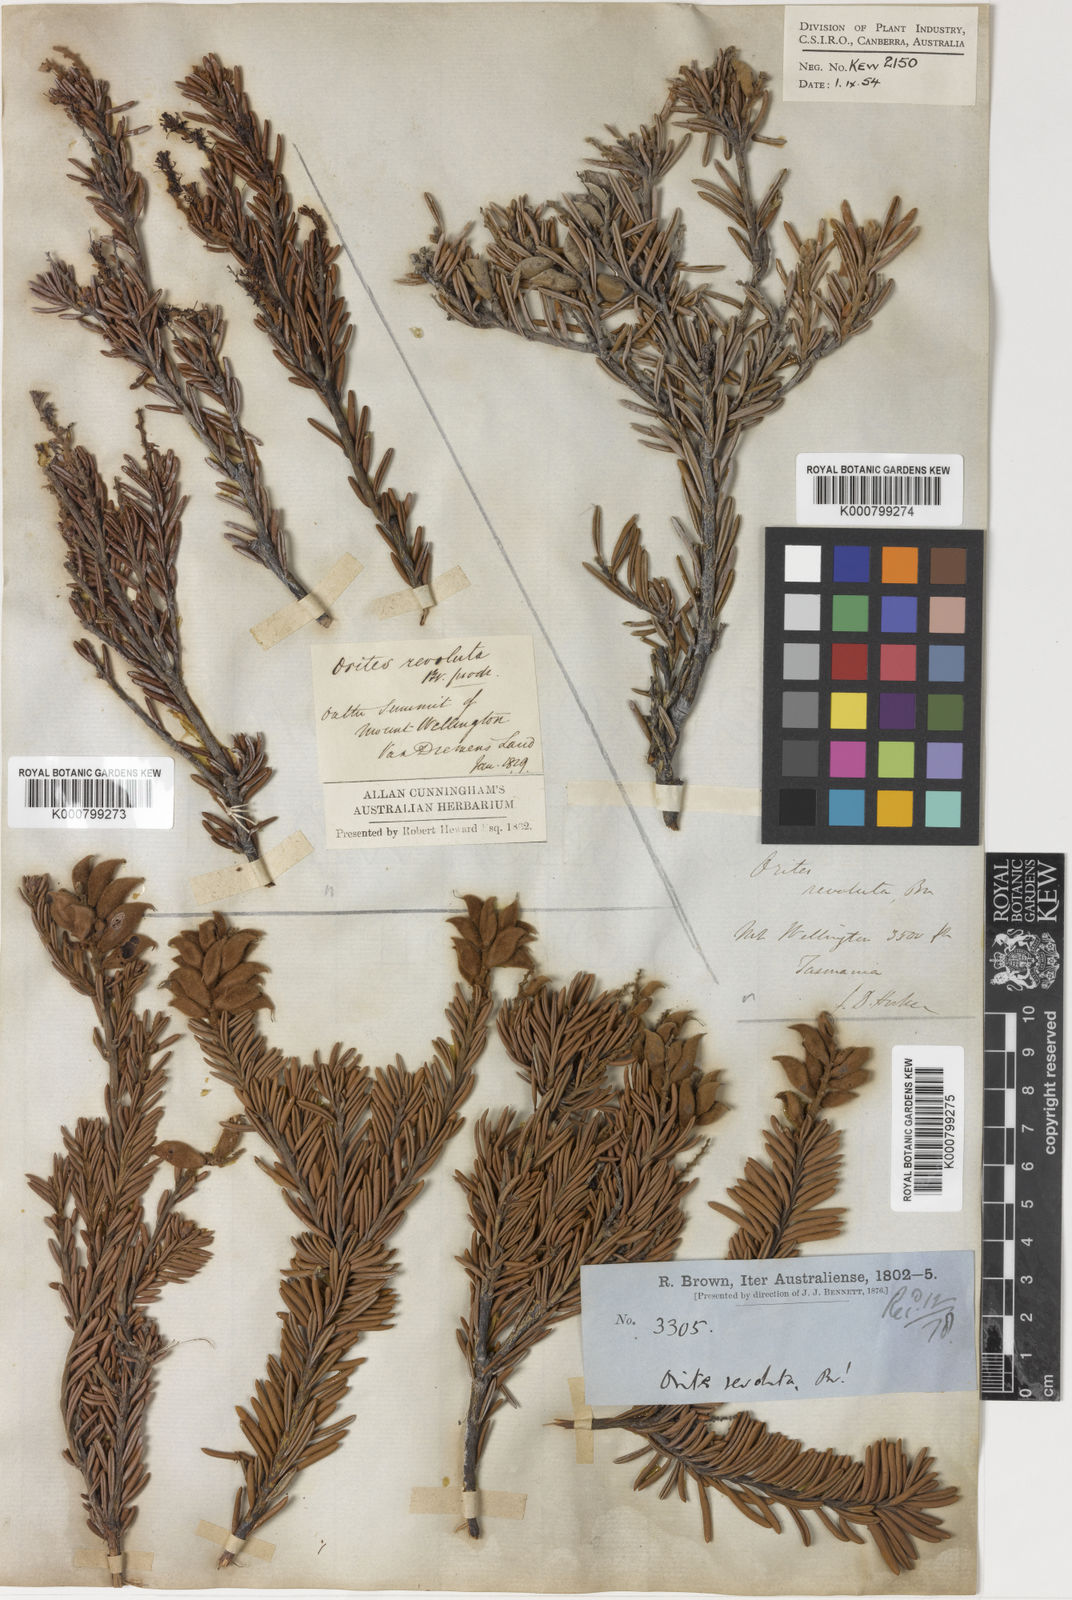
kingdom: Plantae
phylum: Tracheophyta
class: Magnoliopsida
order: Proteales
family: Proteaceae
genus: Orites
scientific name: Orites revolutus
